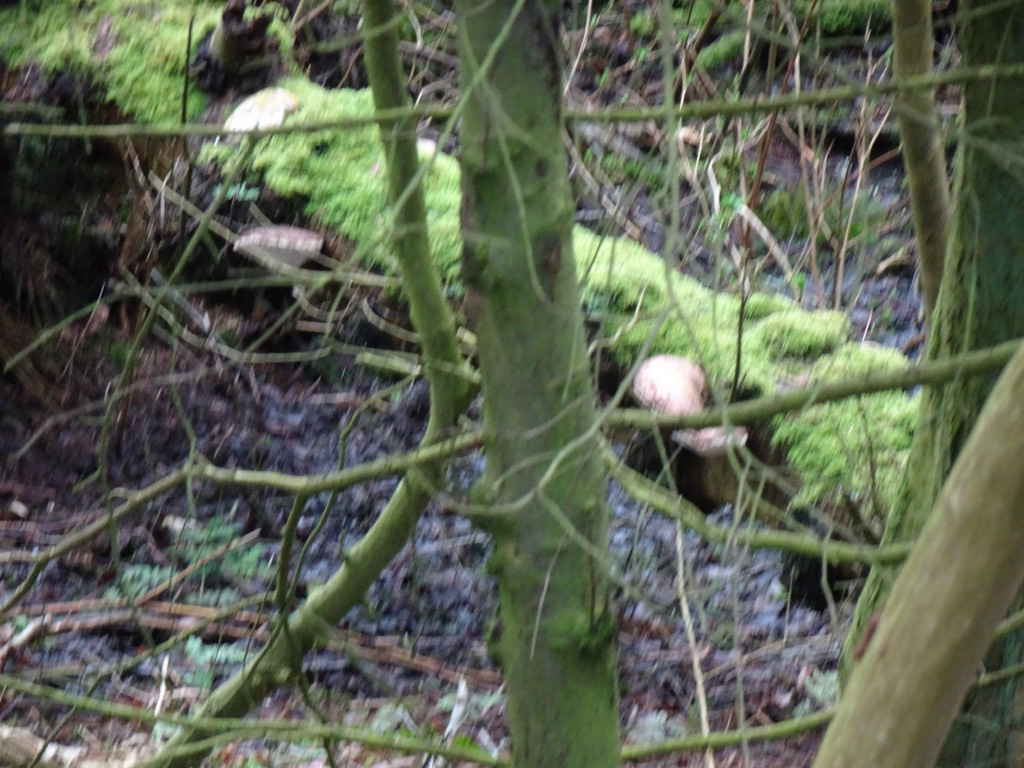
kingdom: Fungi
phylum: Basidiomycota
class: Agaricomycetes
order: Polyporales
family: Fomitopsidaceae
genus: Fomitopsis
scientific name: Fomitopsis betulina
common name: birkeporesvamp
